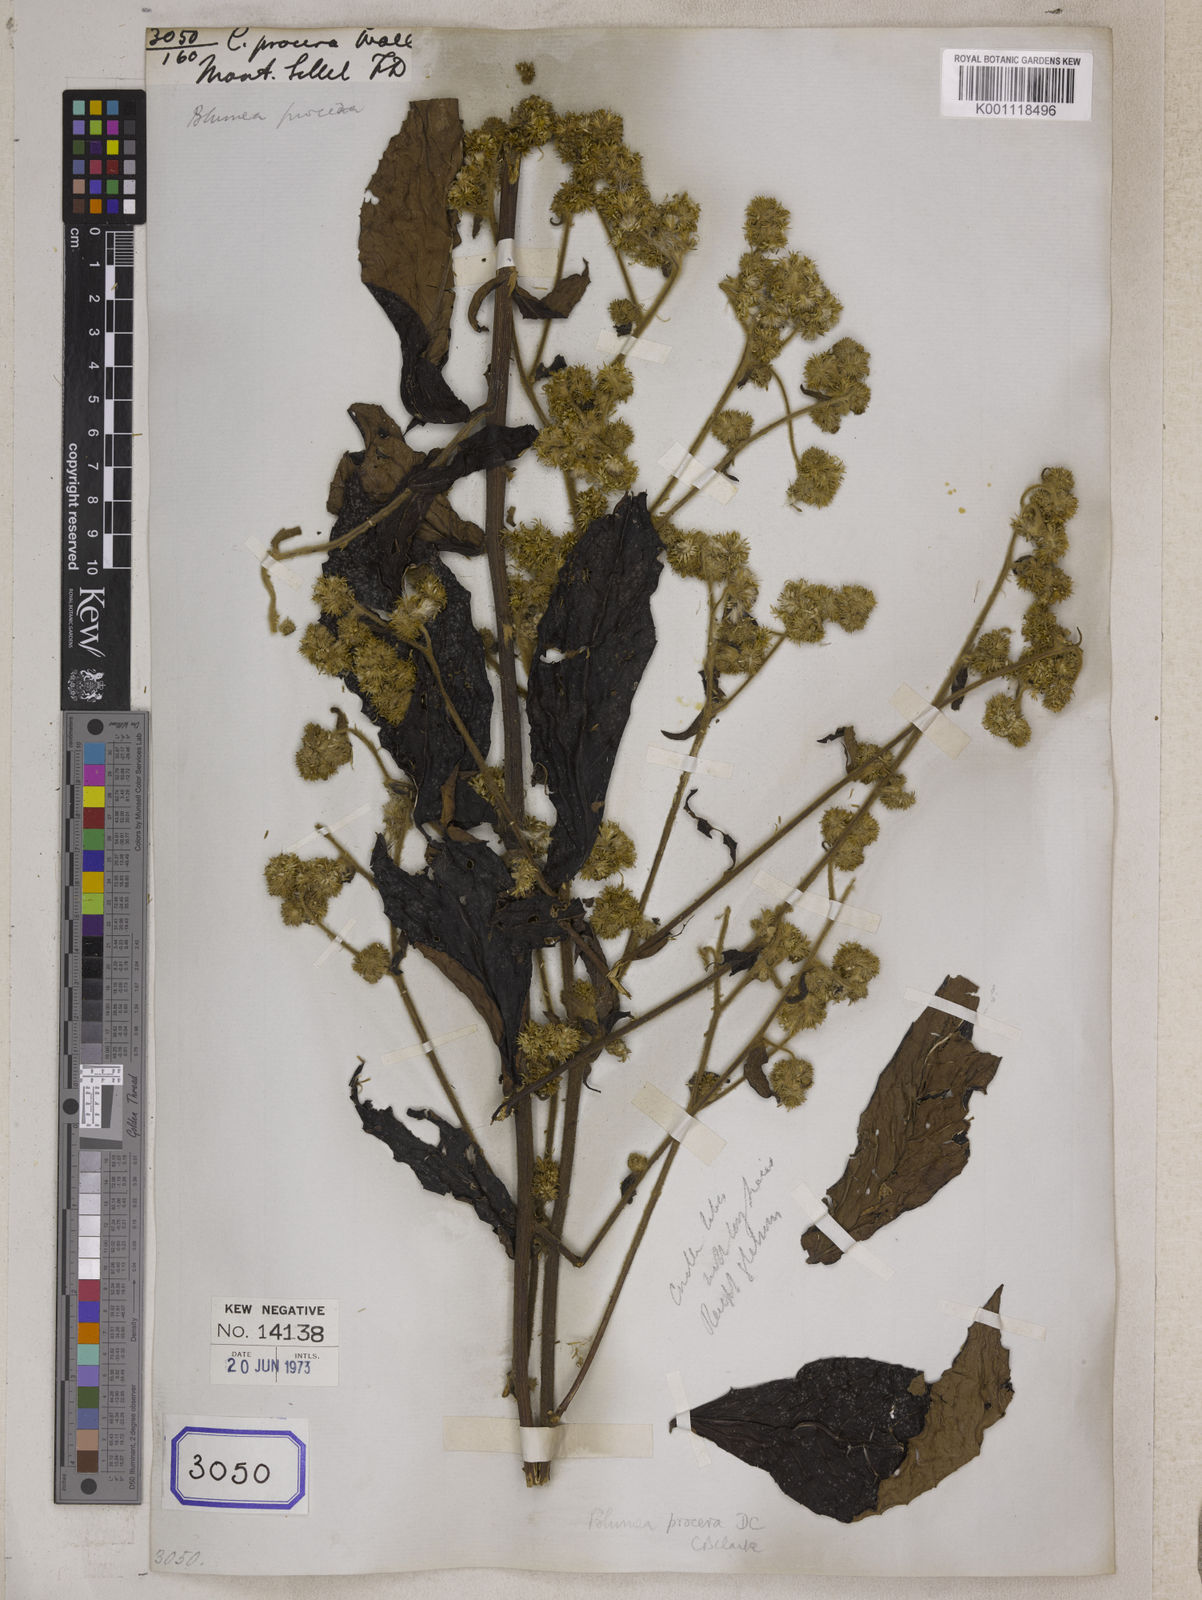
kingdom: Plantae
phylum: Tracheophyta
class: Magnoliopsida
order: Asterales
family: Asteraceae
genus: Blumea
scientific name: Blumea repanda
